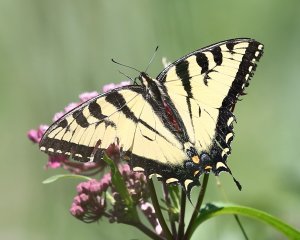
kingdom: Animalia
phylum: Arthropoda
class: Insecta
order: Lepidoptera
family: Papilionidae
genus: Pterourus
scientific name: Pterourus canadensis
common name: Canadian Tiger Swallowtail
